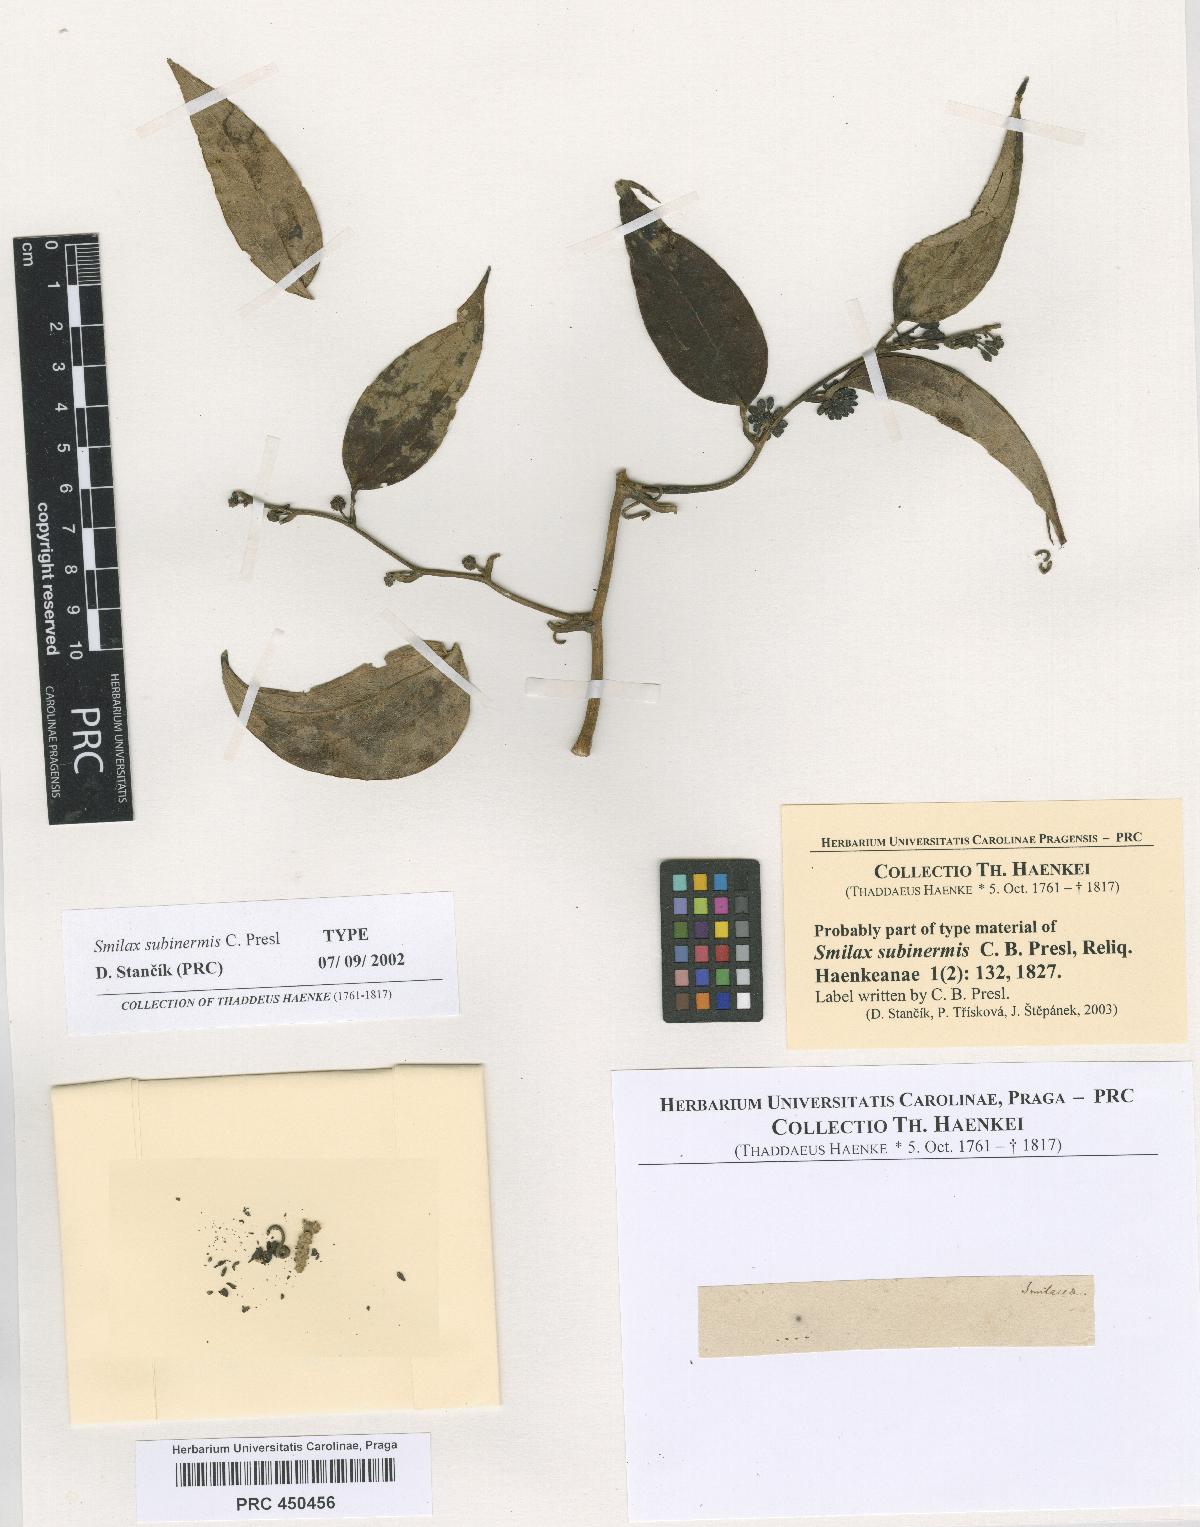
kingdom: Plantae
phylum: Tracheophyta
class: Liliopsida
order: Liliales
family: Smilacaceae
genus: Smilax
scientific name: Smilax subinermis
